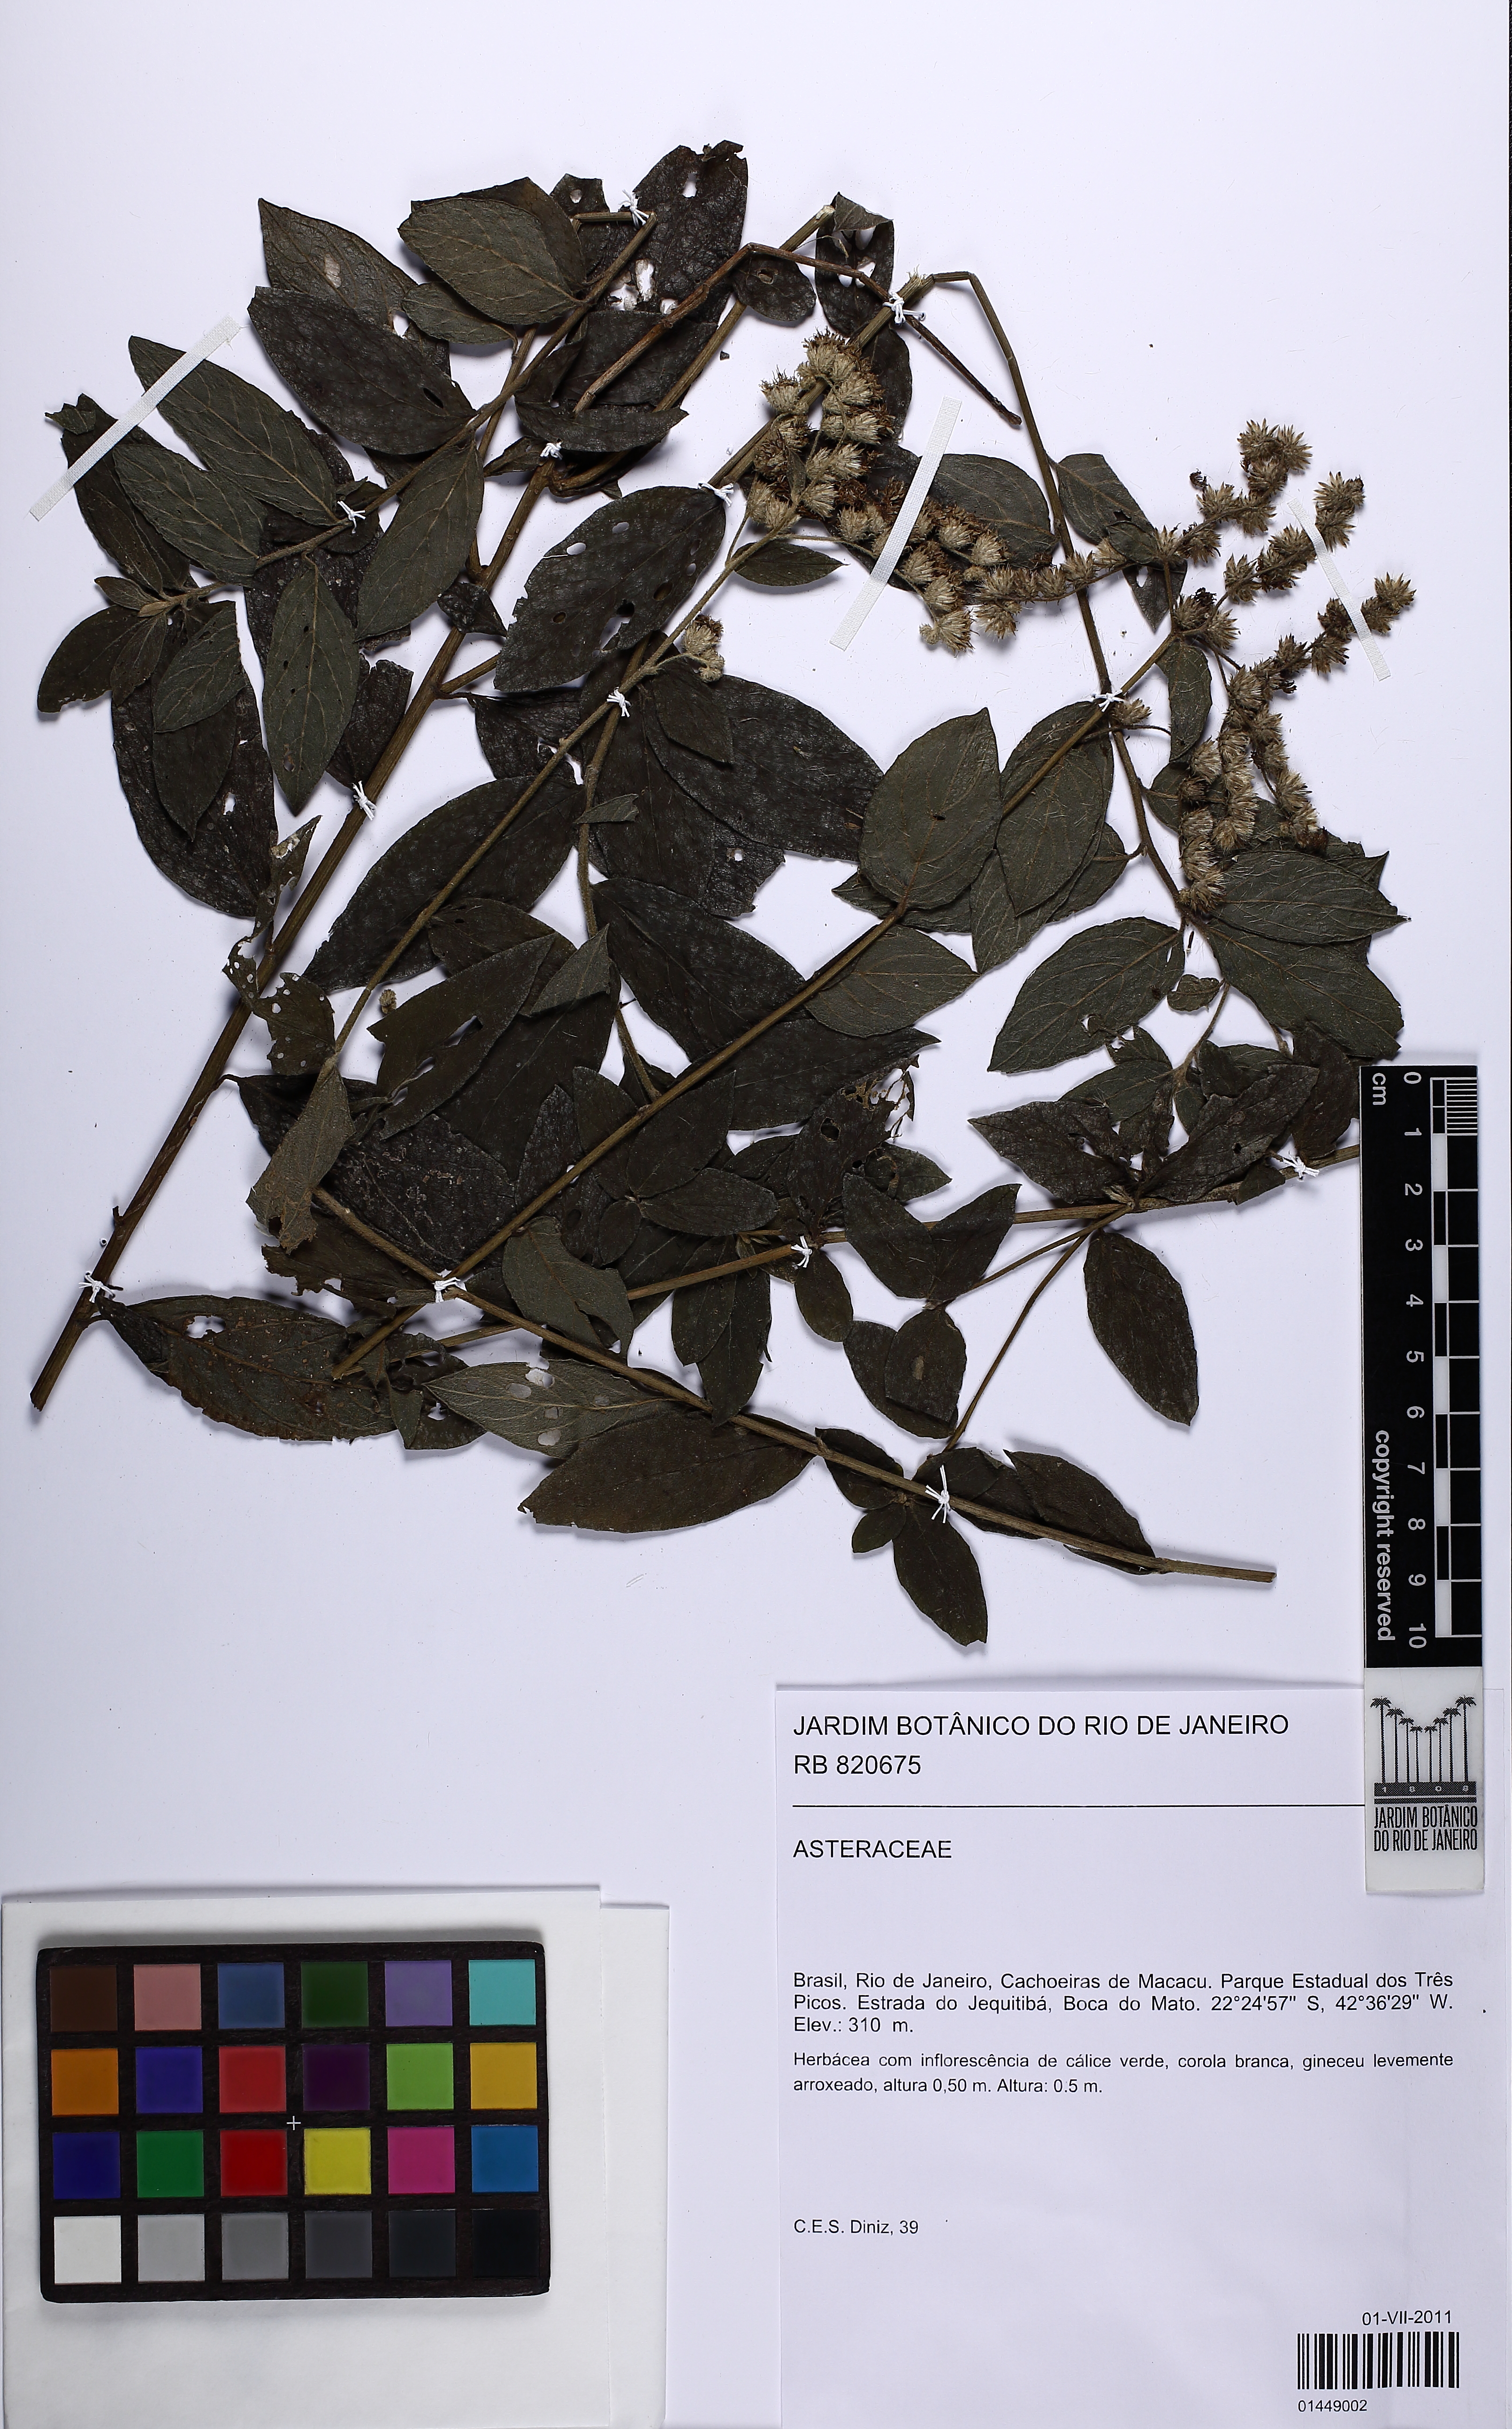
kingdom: Plantae
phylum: Tracheophyta
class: Magnoliopsida
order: Asterales
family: Asteraceae
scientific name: Asteraceae
